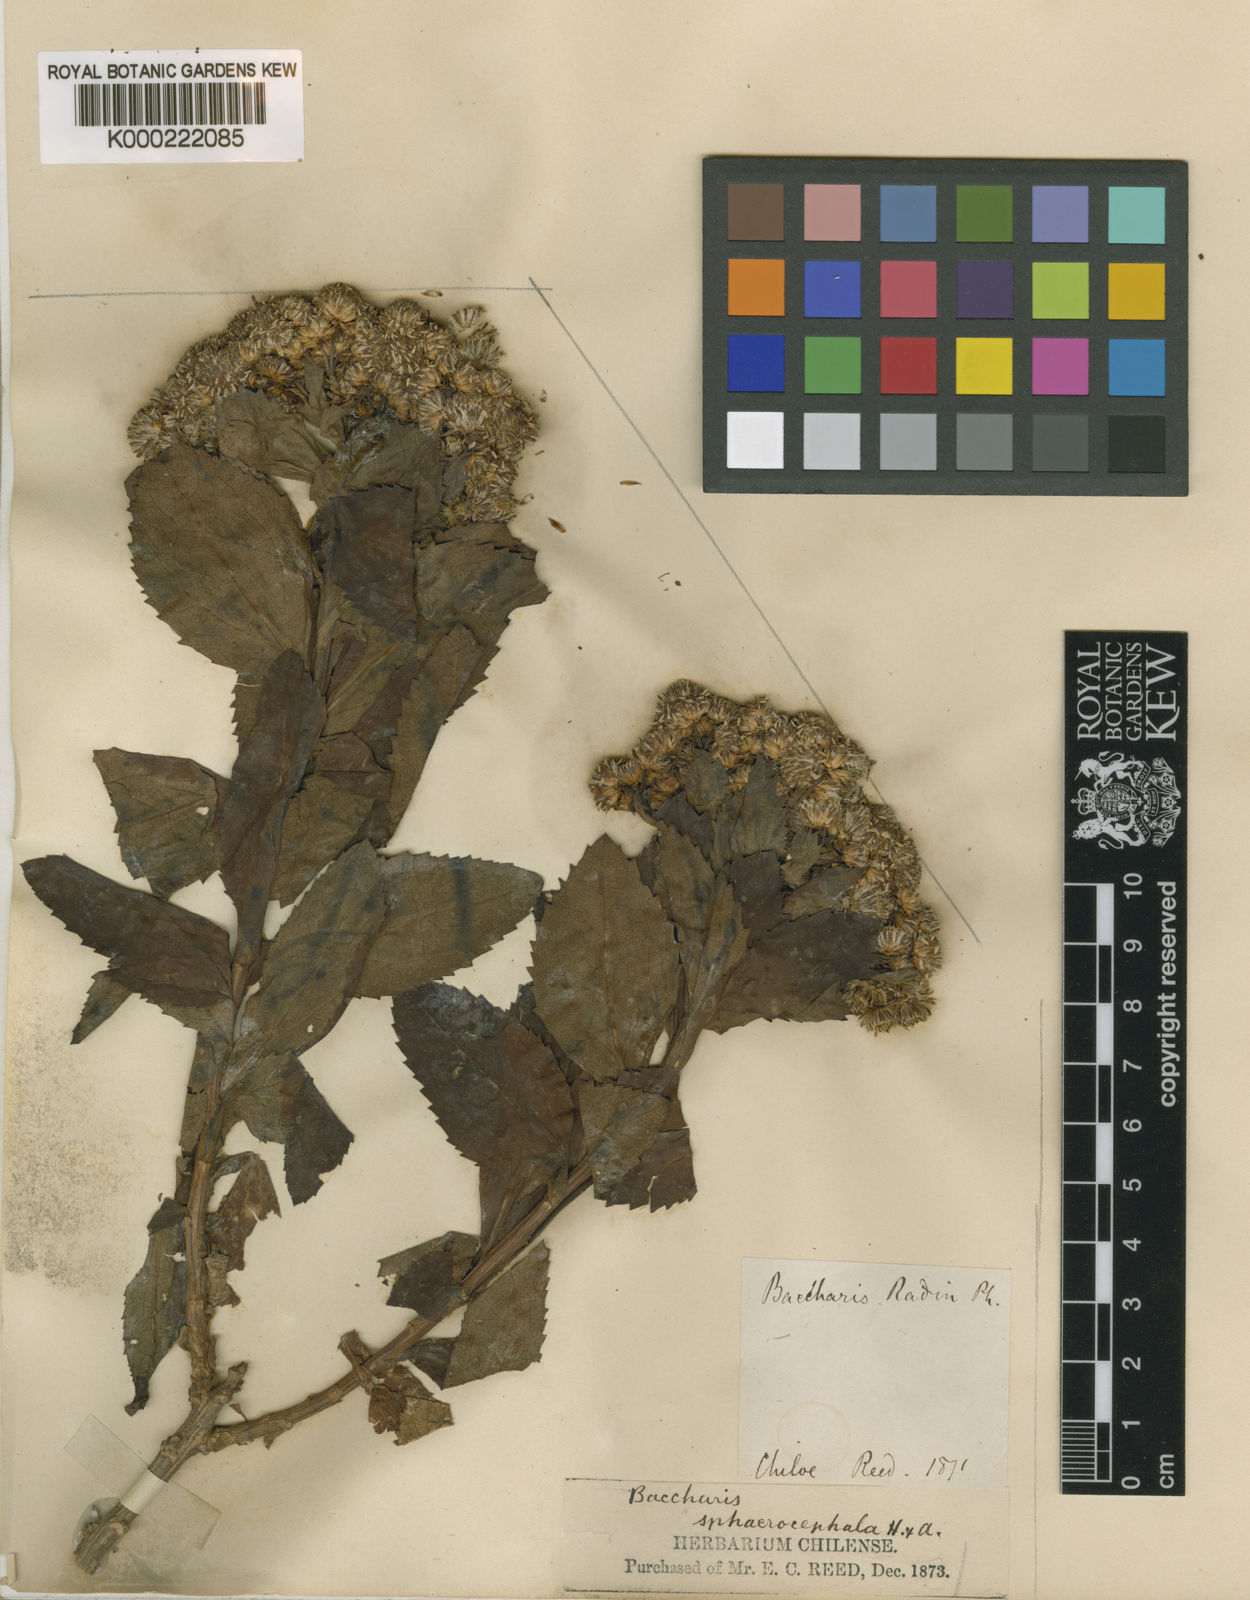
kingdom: Plantae
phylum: Tracheophyta
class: Magnoliopsida
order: Asterales
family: Asteraceae
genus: Baccharis
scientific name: Baccharis sphaerocephala
